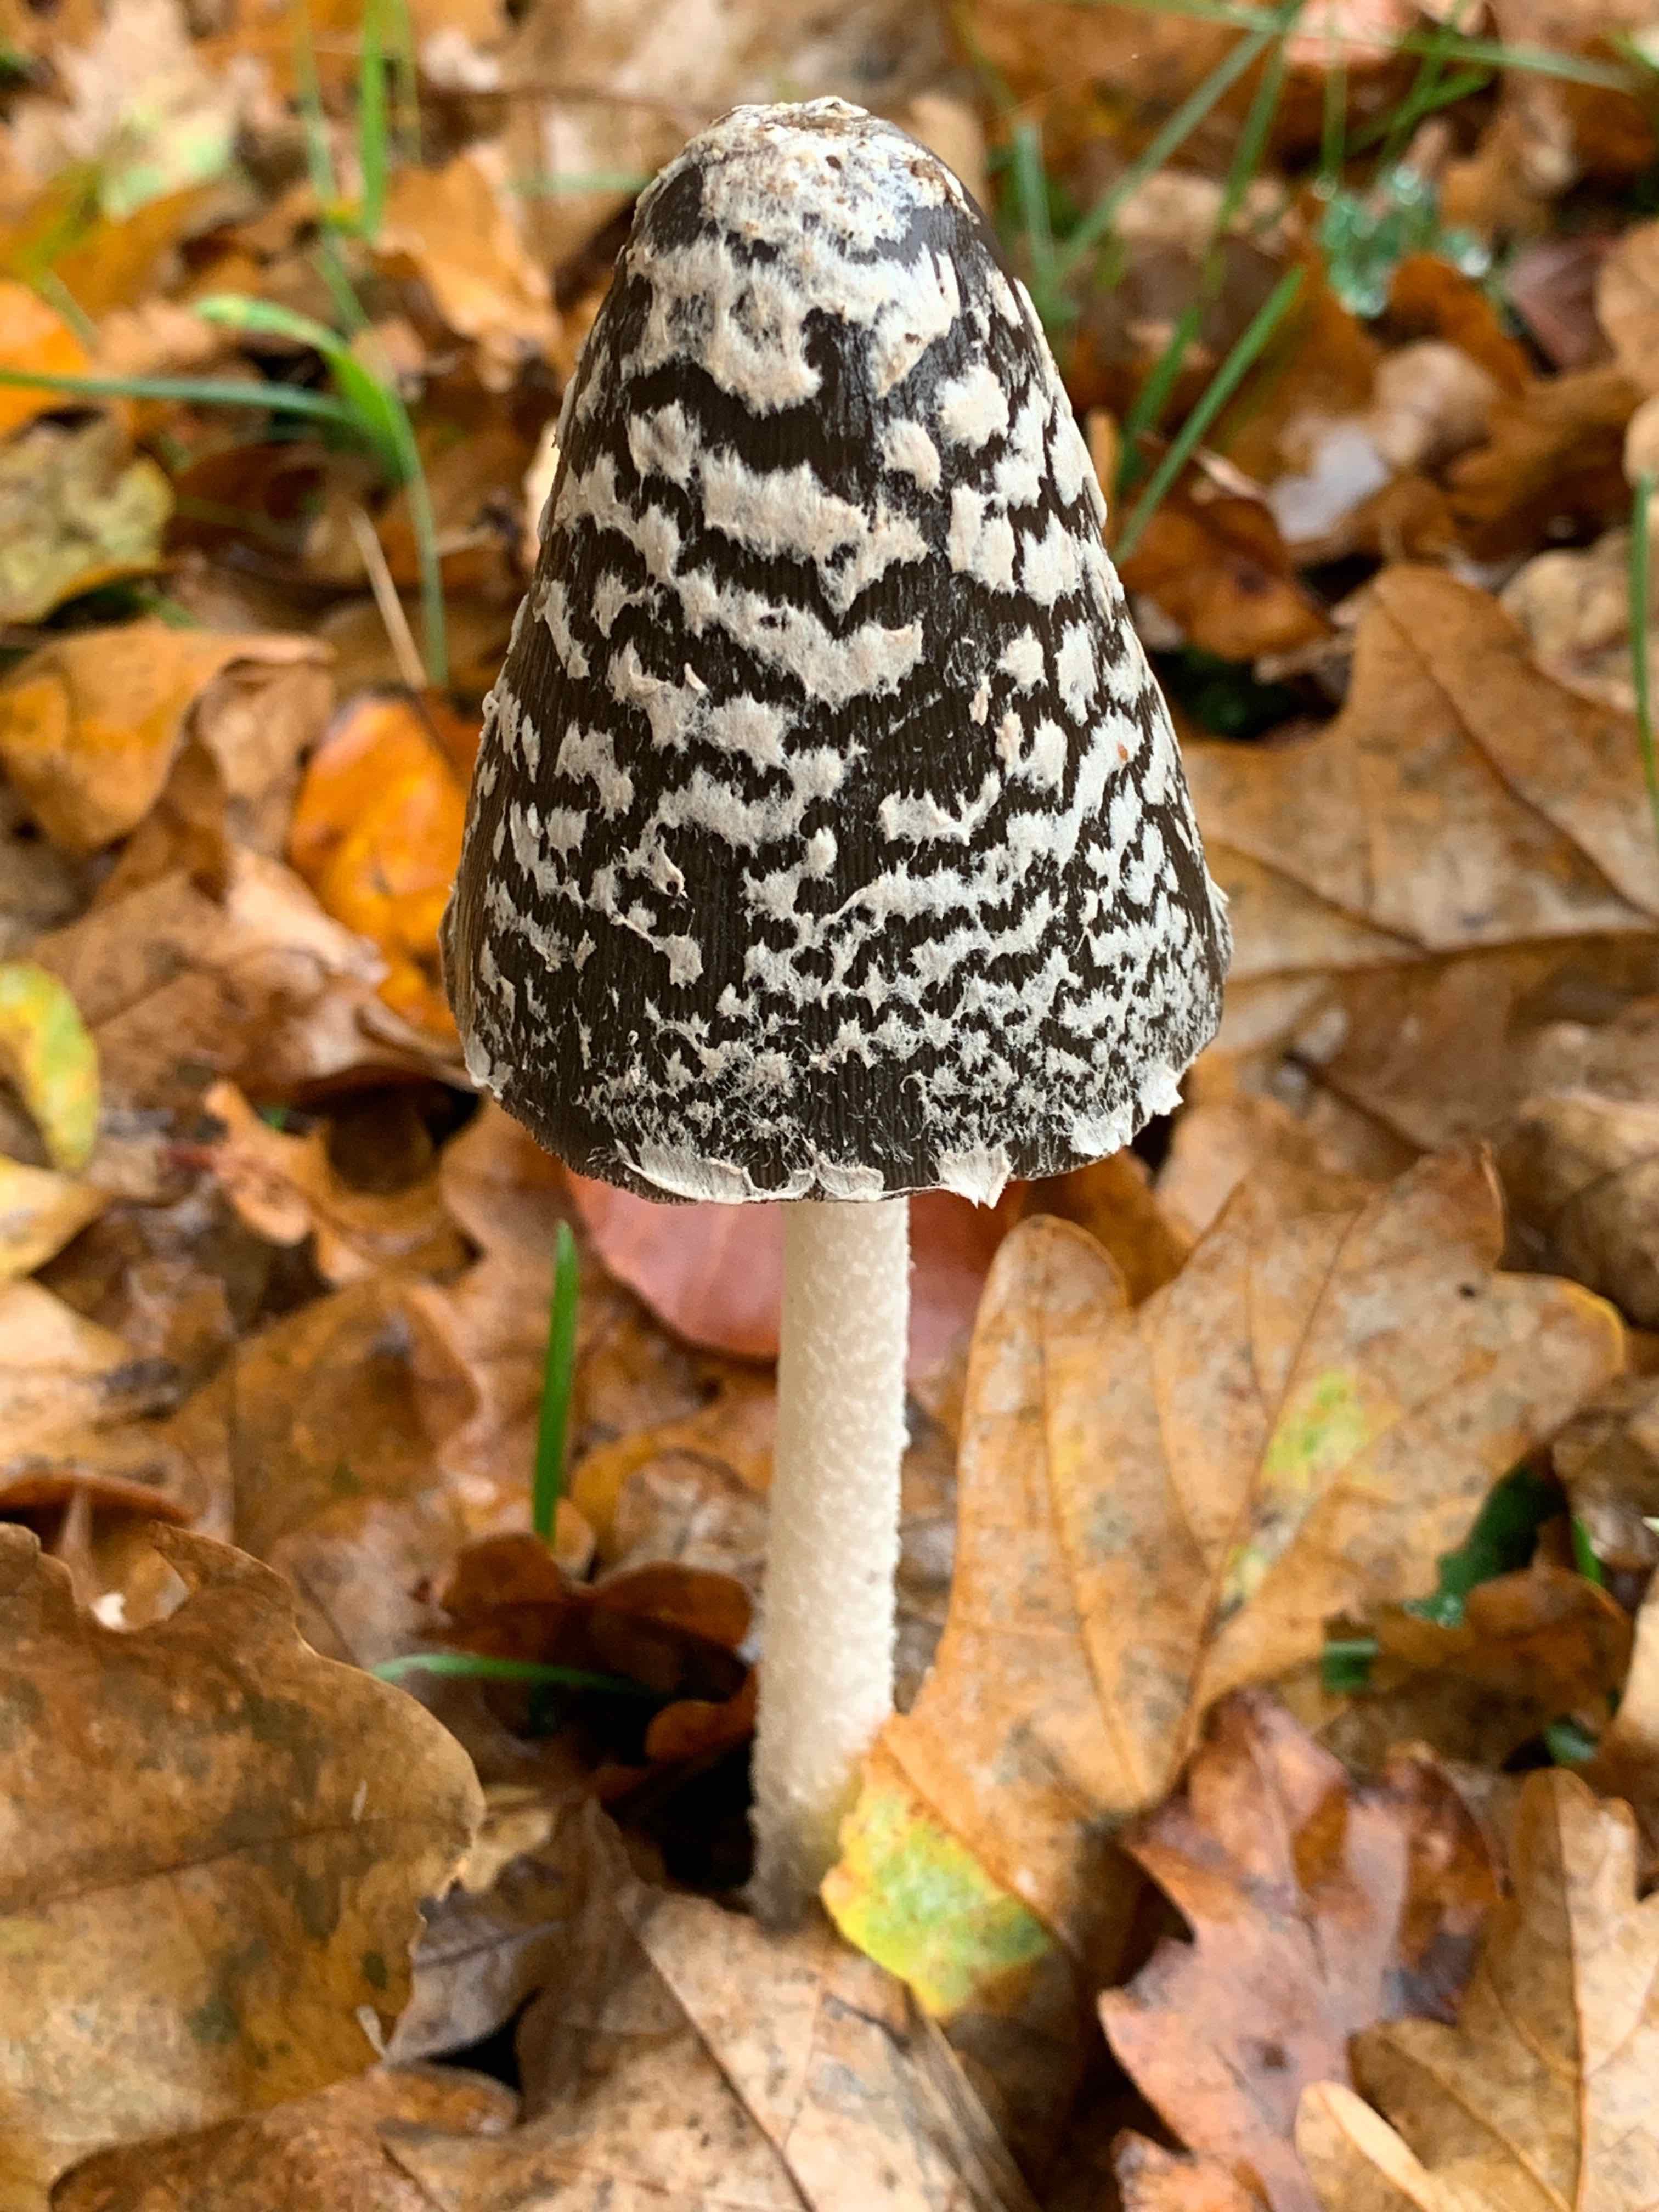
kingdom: Fungi
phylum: Basidiomycota
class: Agaricomycetes
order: Agaricales
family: Psathyrellaceae
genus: Coprinopsis
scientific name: Coprinopsis picacea
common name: skade-blækhat
